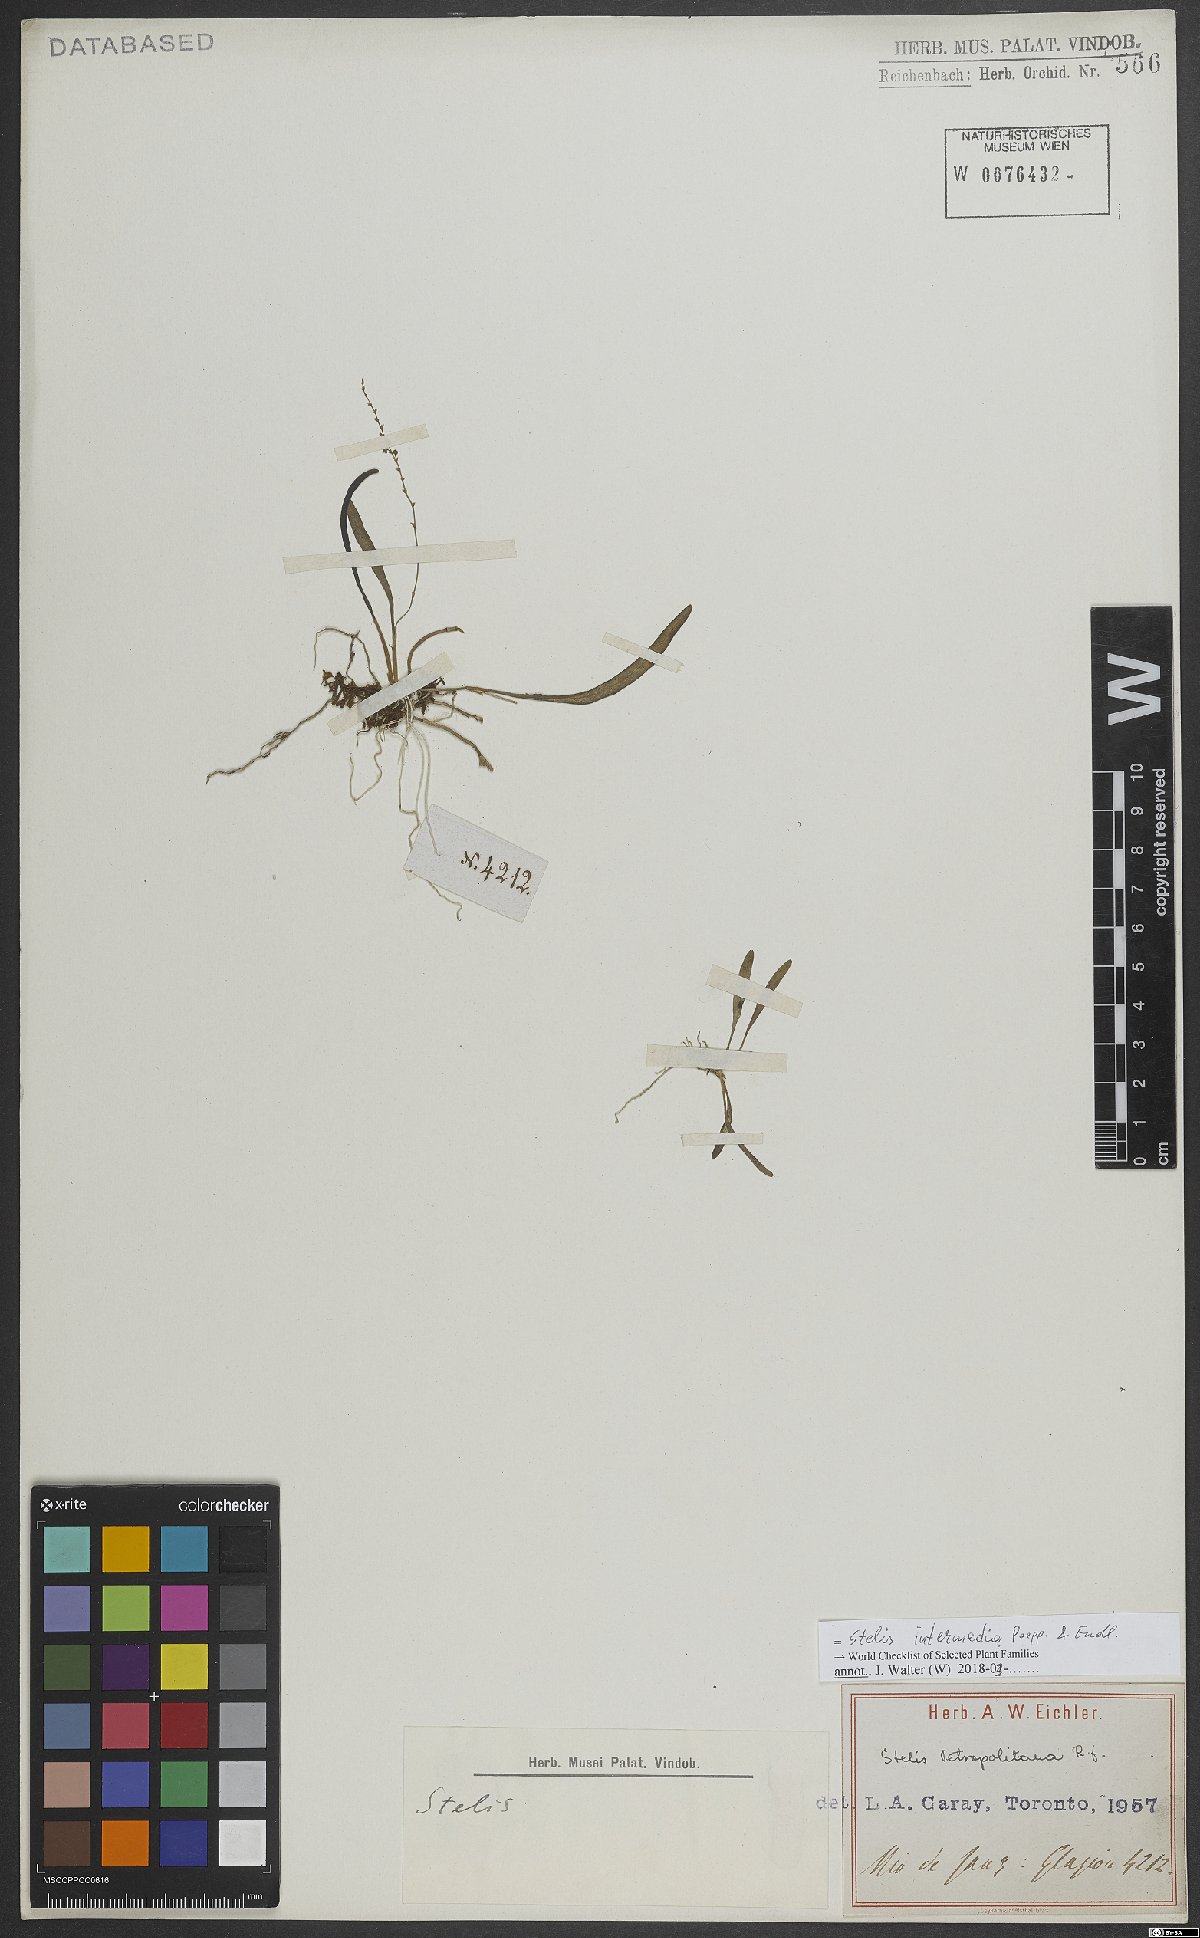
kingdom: Plantae
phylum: Tracheophyta
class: Liliopsida
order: Asparagales
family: Orchidaceae
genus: Stelis
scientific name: Stelis intermedia
